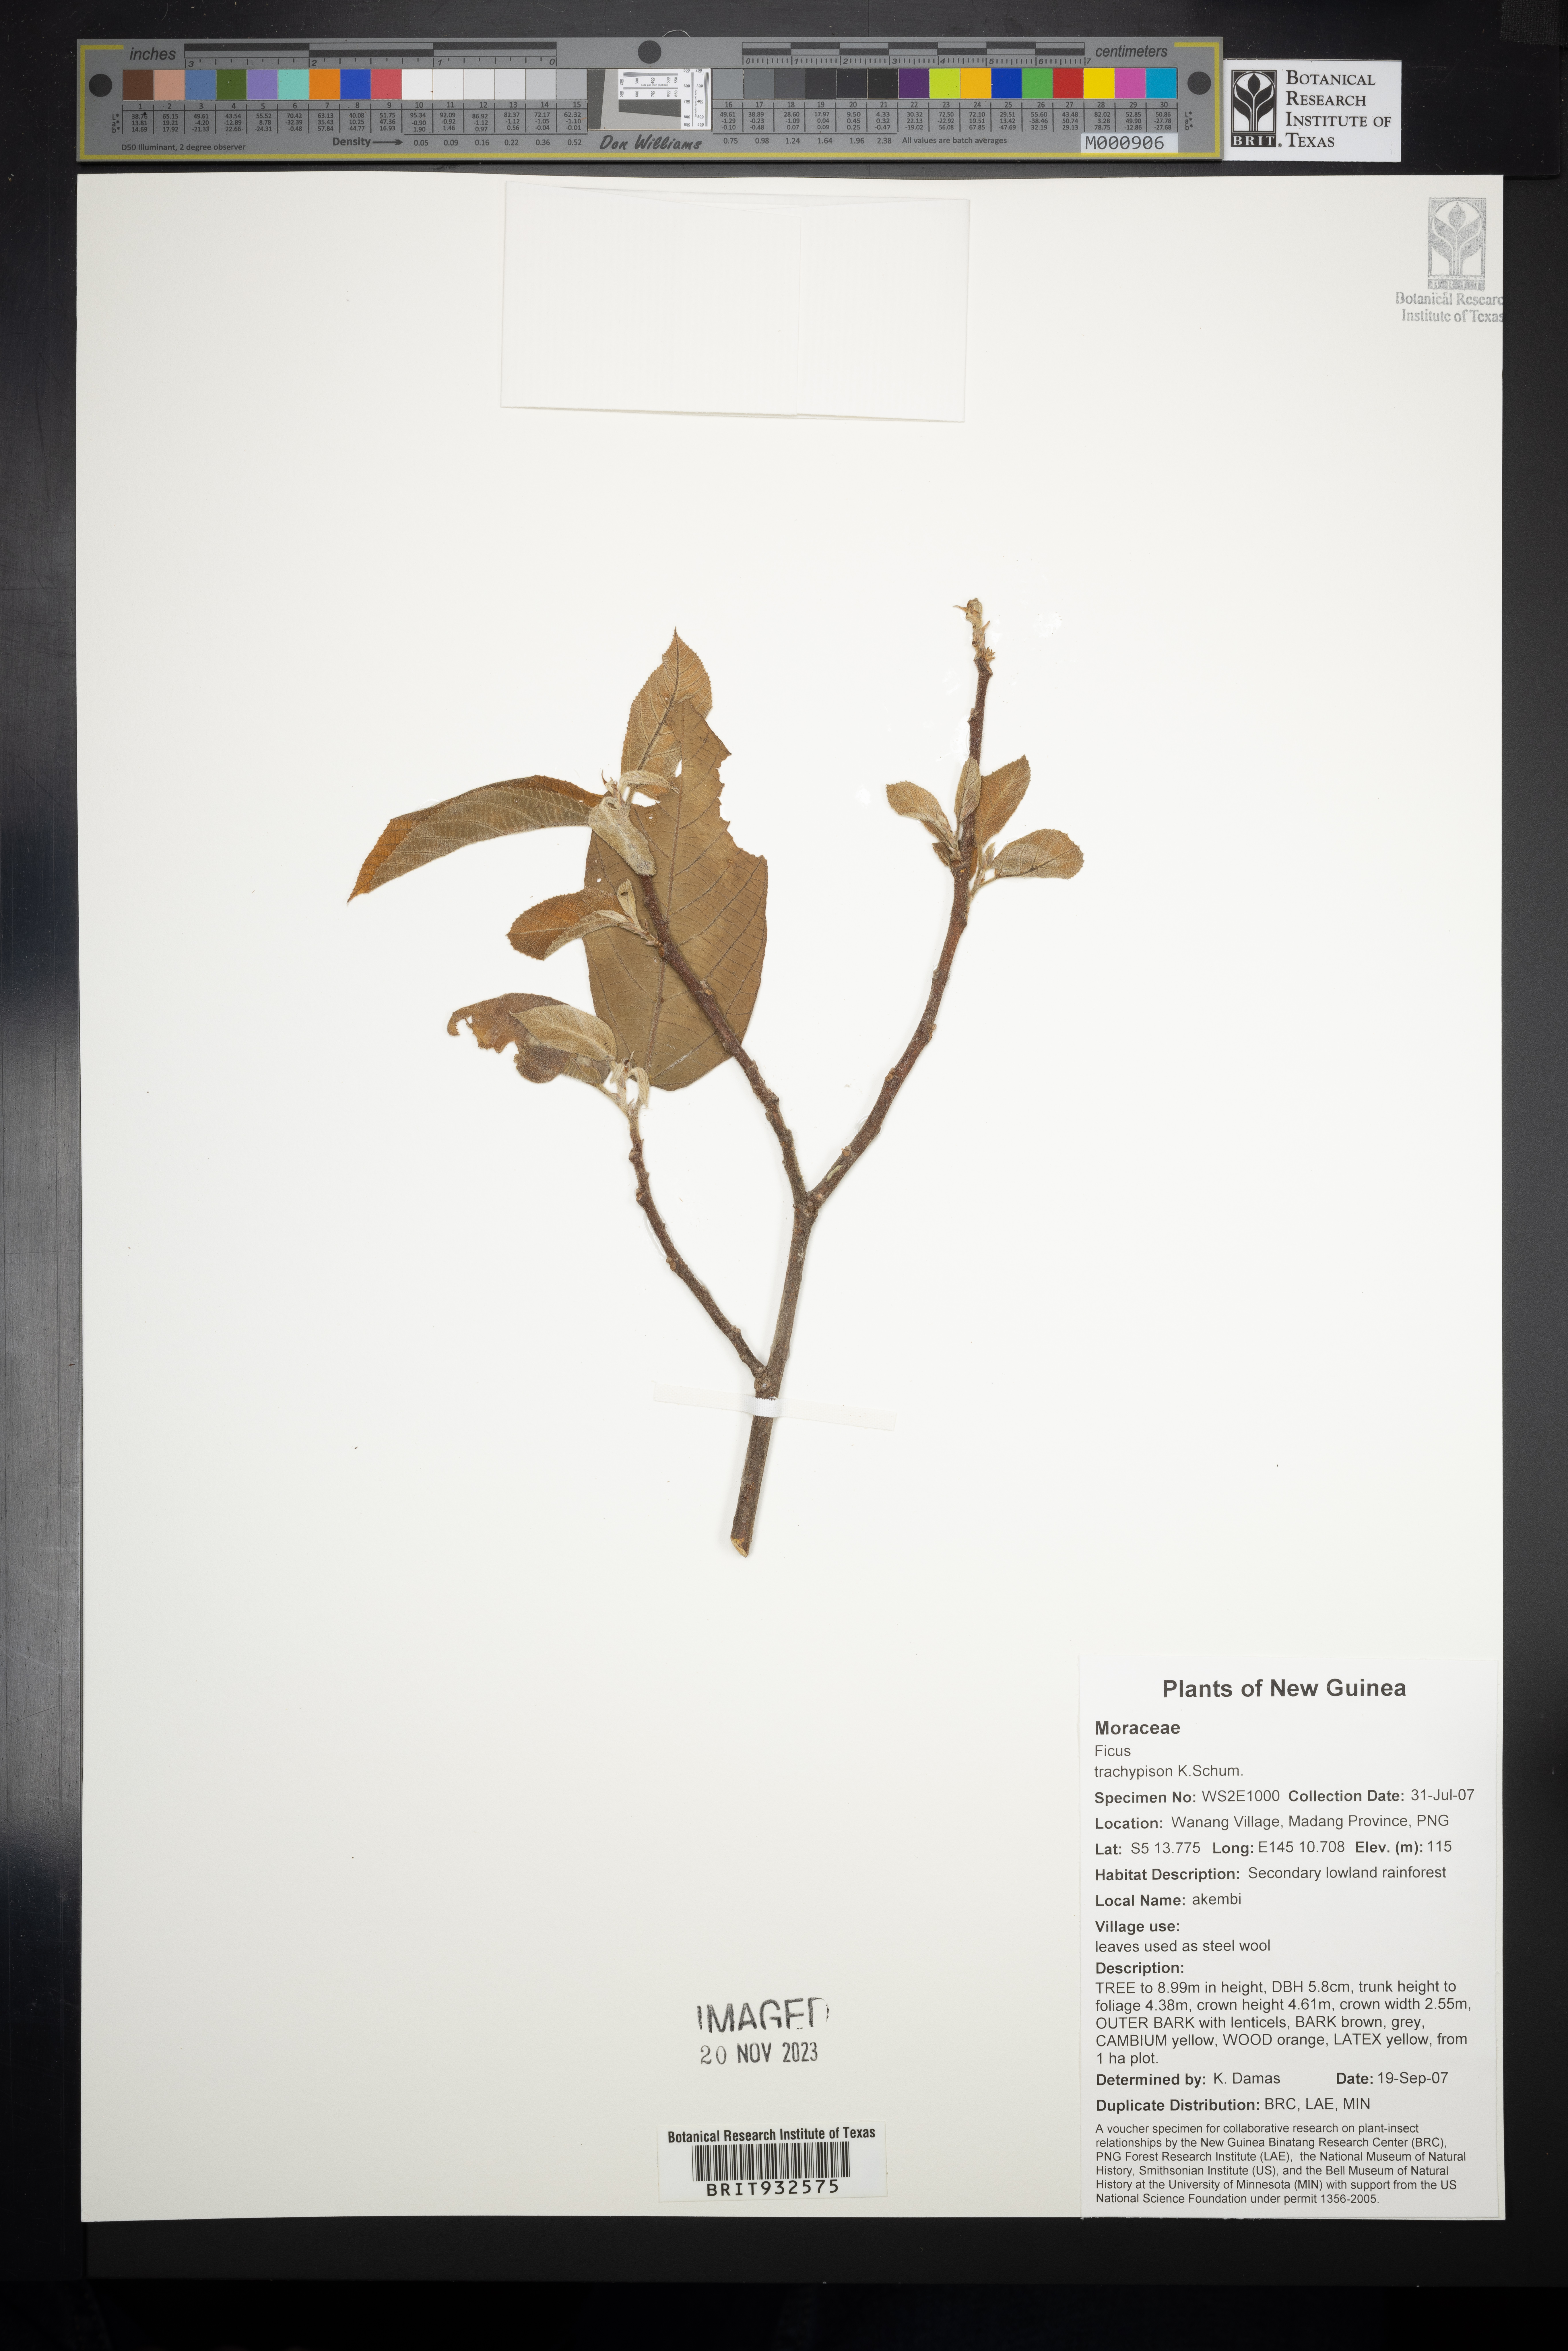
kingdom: Plantae
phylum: Tracheophyta
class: Magnoliopsida
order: Rosales
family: Moraceae
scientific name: Moraceae
